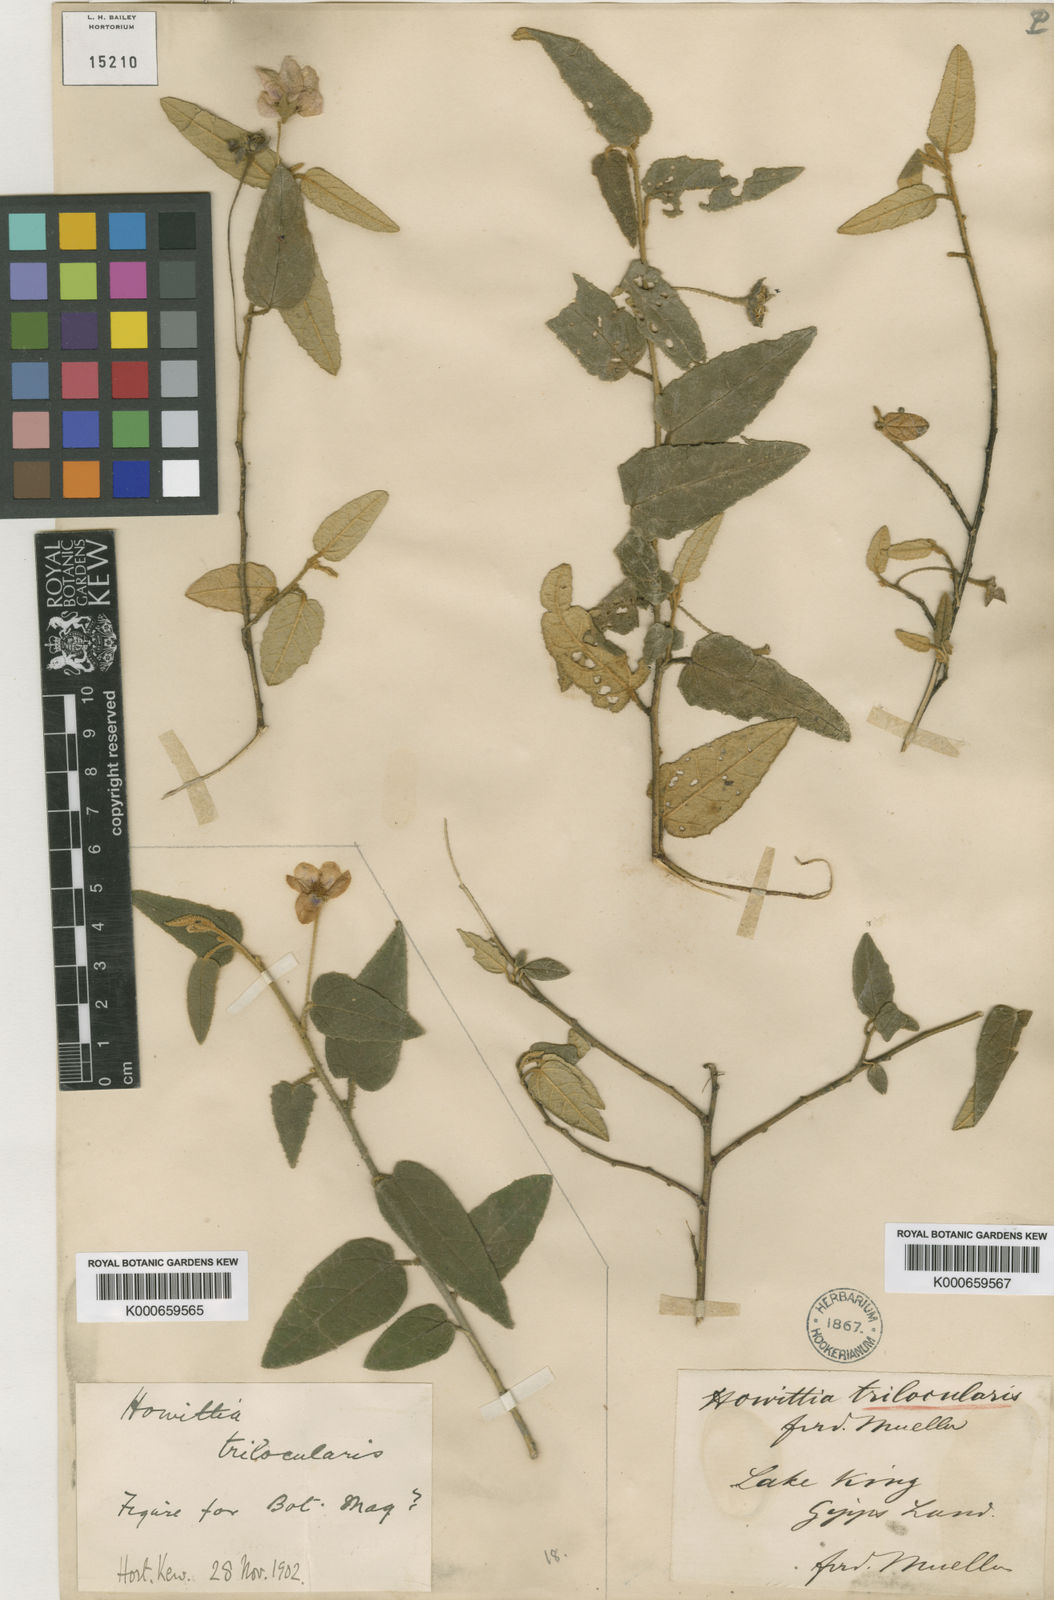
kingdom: Plantae
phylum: Tracheophyta
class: Magnoliopsida
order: Malvales
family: Malvaceae
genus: Howittia
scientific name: Howittia trilocularis
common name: Blue howittia
